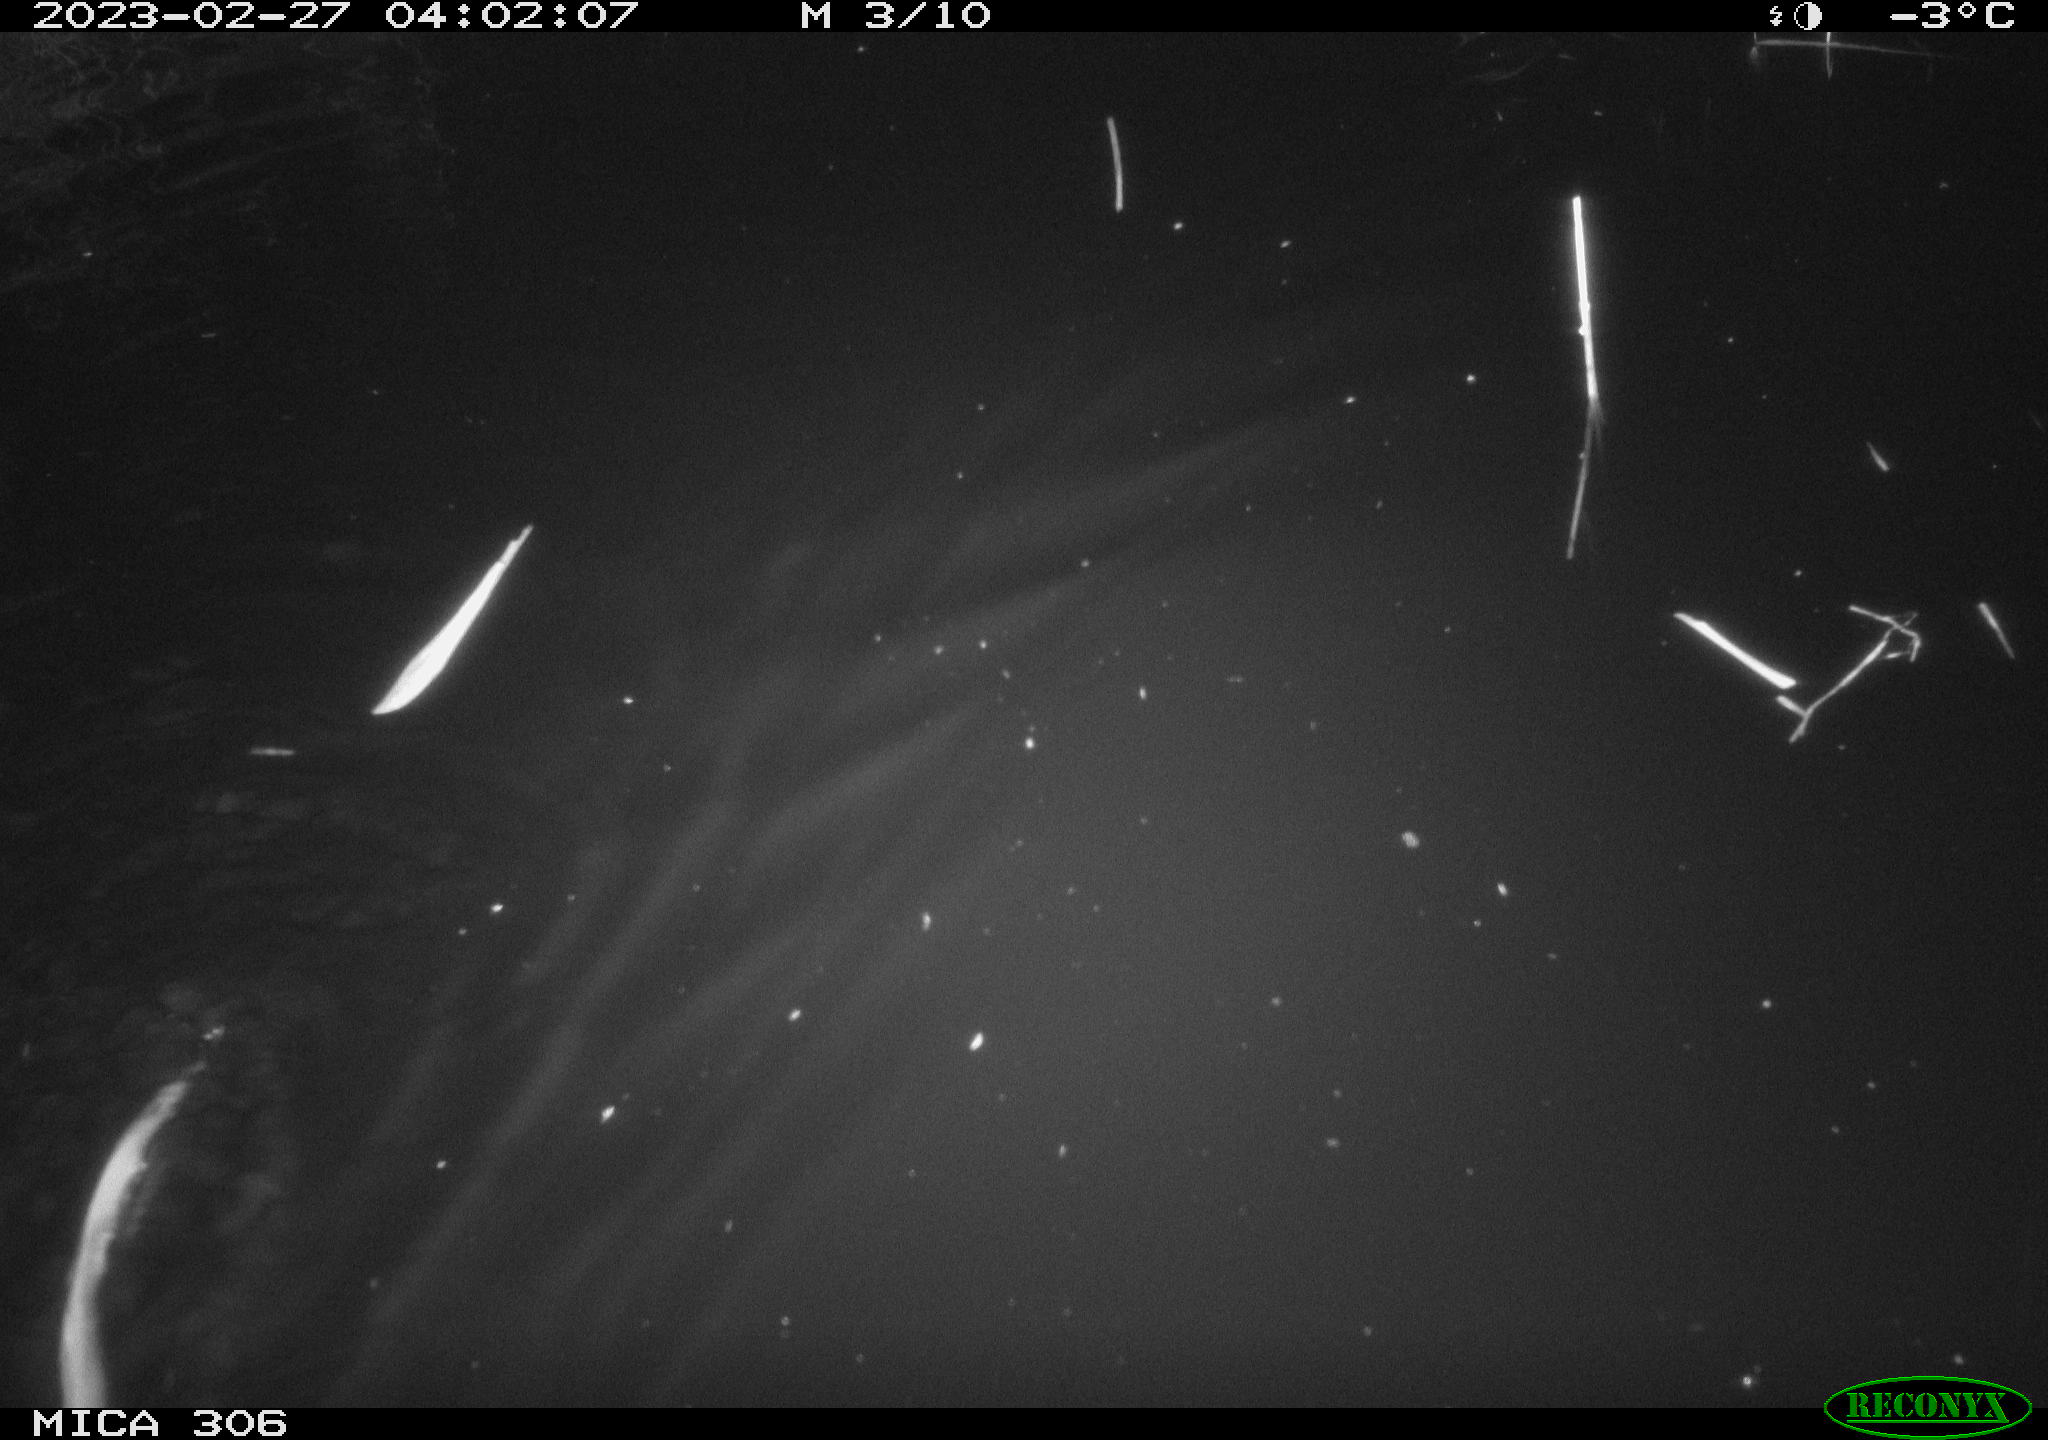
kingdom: Animalia
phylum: Chordata
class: Mammalia
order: Rodentia
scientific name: Rodentia
